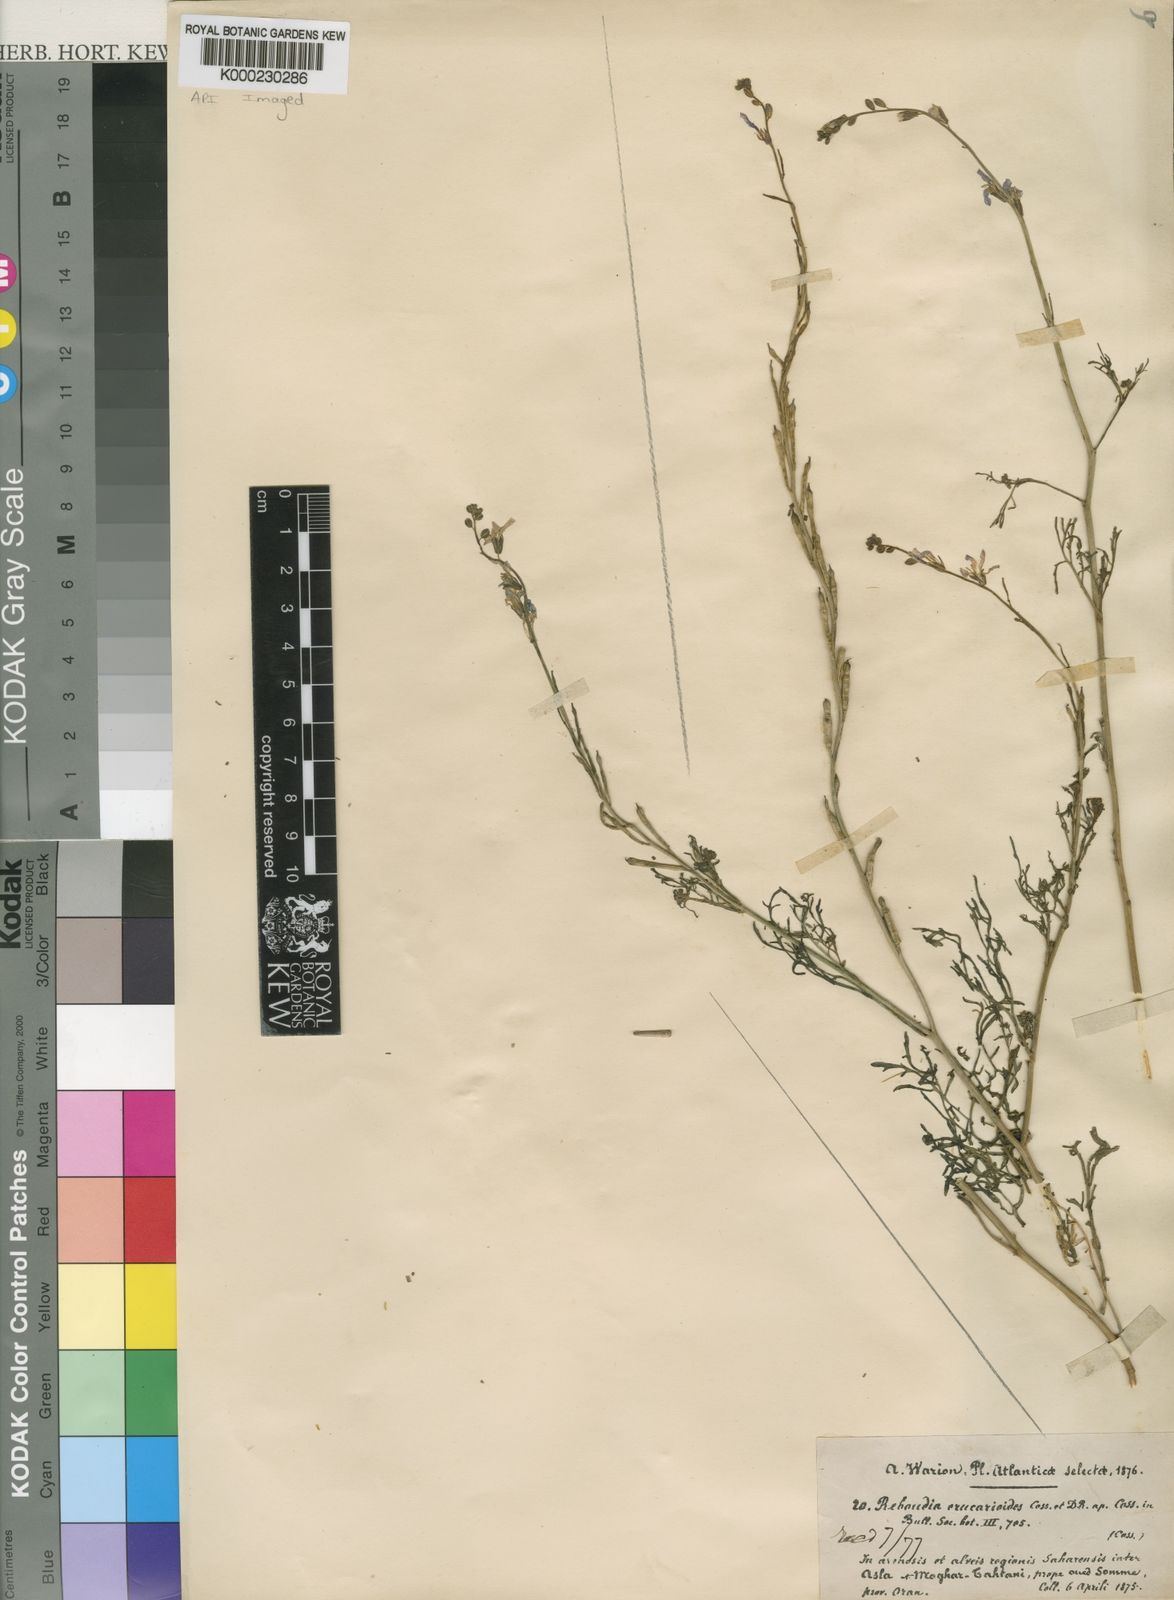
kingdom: Plantae
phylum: Tracheophyta
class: Magnoliopsida
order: Brassicales
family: Brassicaceae
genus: Erucaria
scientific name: Erucaria erucarioides
